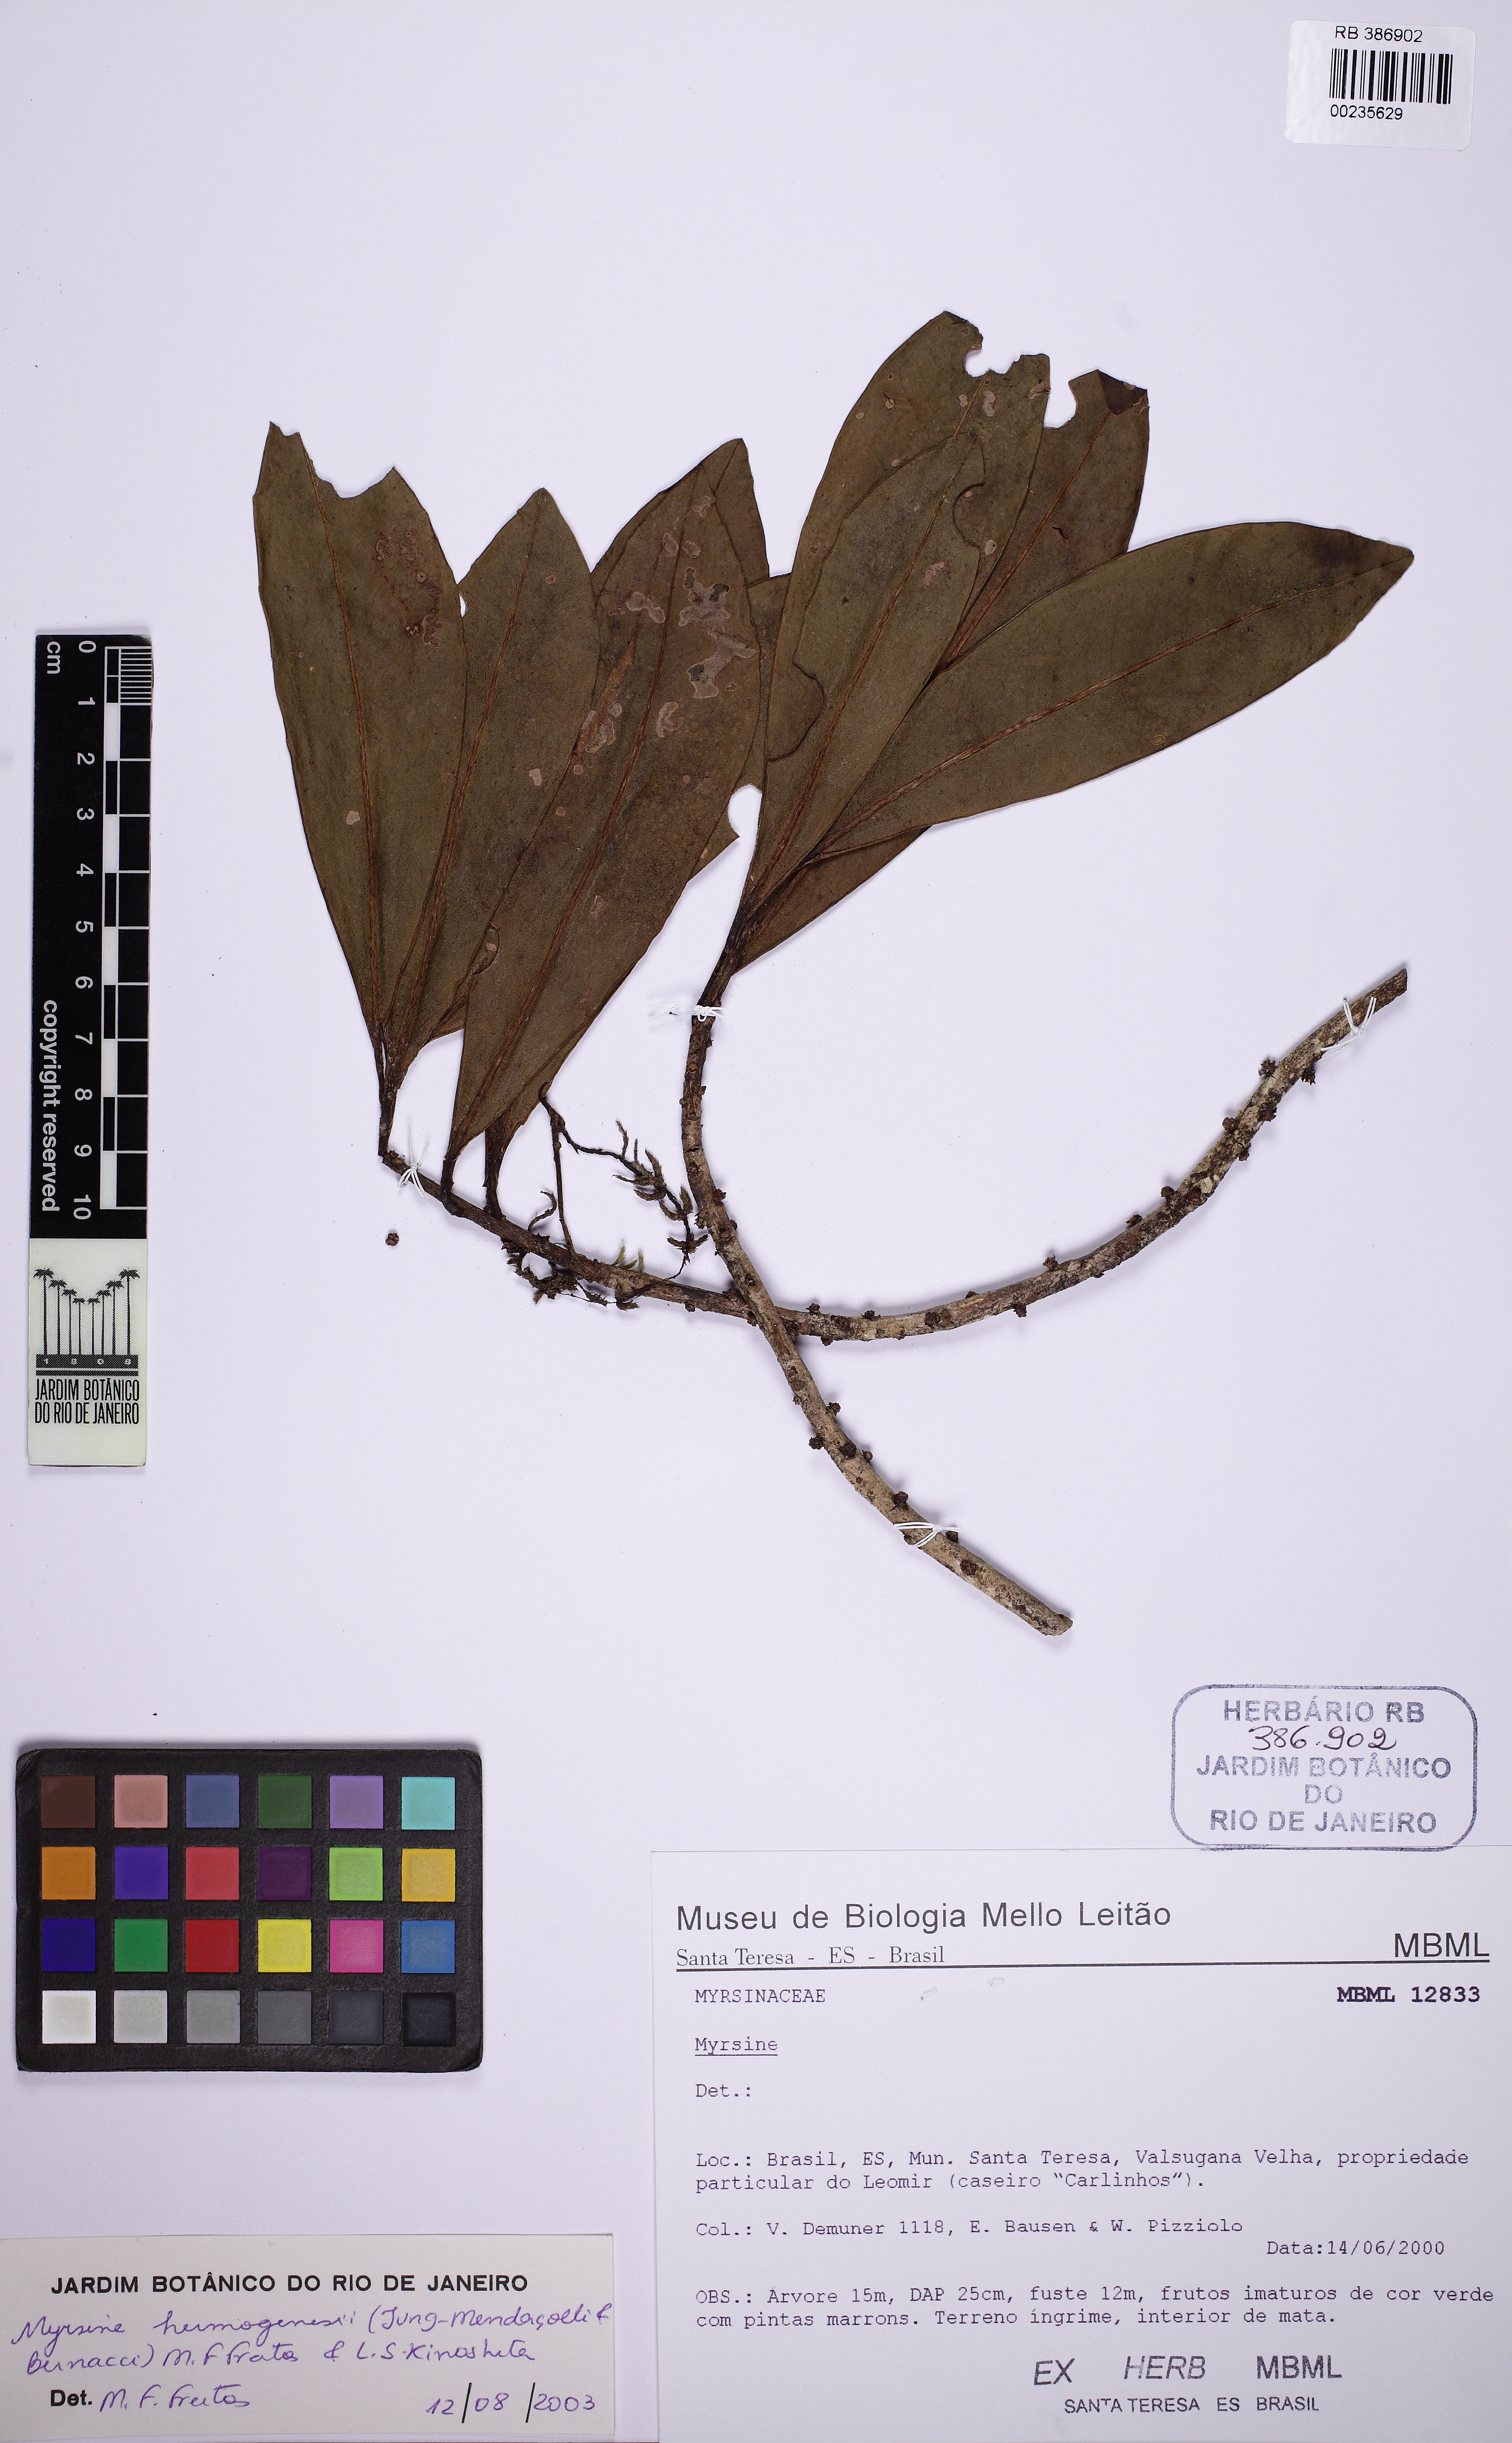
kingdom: Plantae
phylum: Tracheophyta
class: Magnoliopsida
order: Ericales
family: Primulaceae
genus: Myrsine
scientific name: Myrsine hermogenesii
